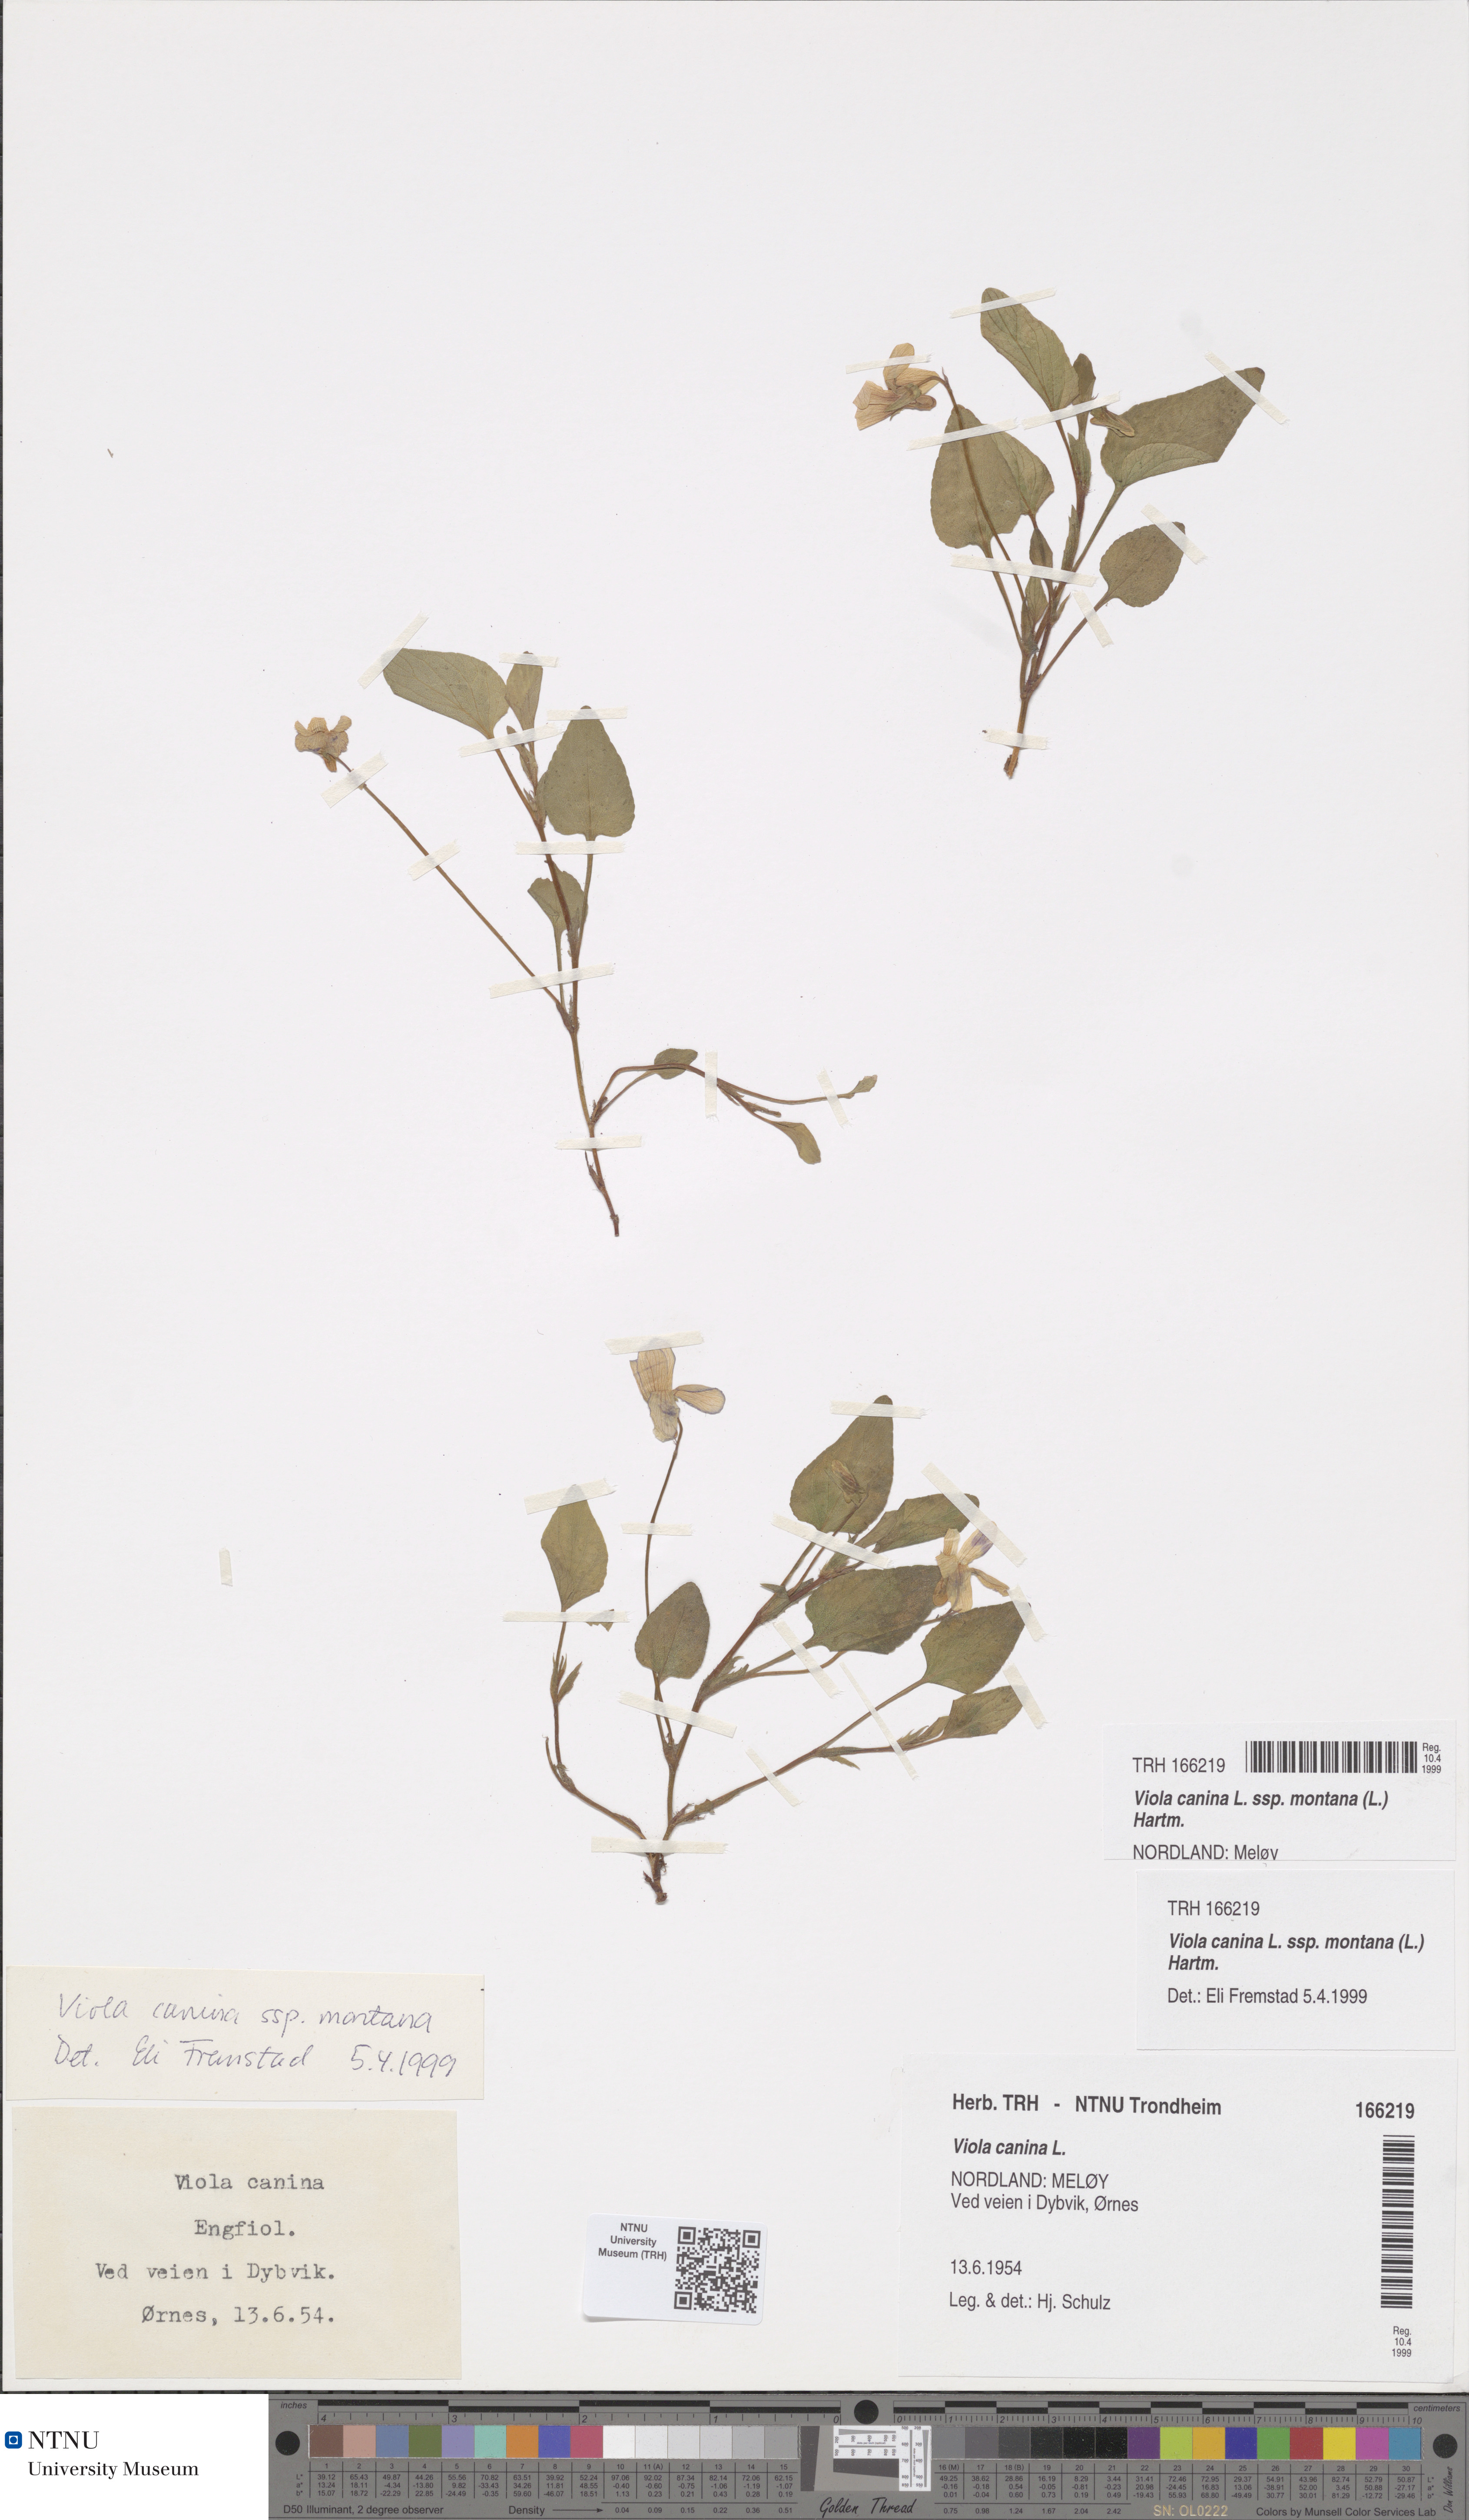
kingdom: Plantae
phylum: Tracheophyta
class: Magnoliopsida
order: Malpighiales
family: Violaceae
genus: Viola
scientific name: Viola ruppii
